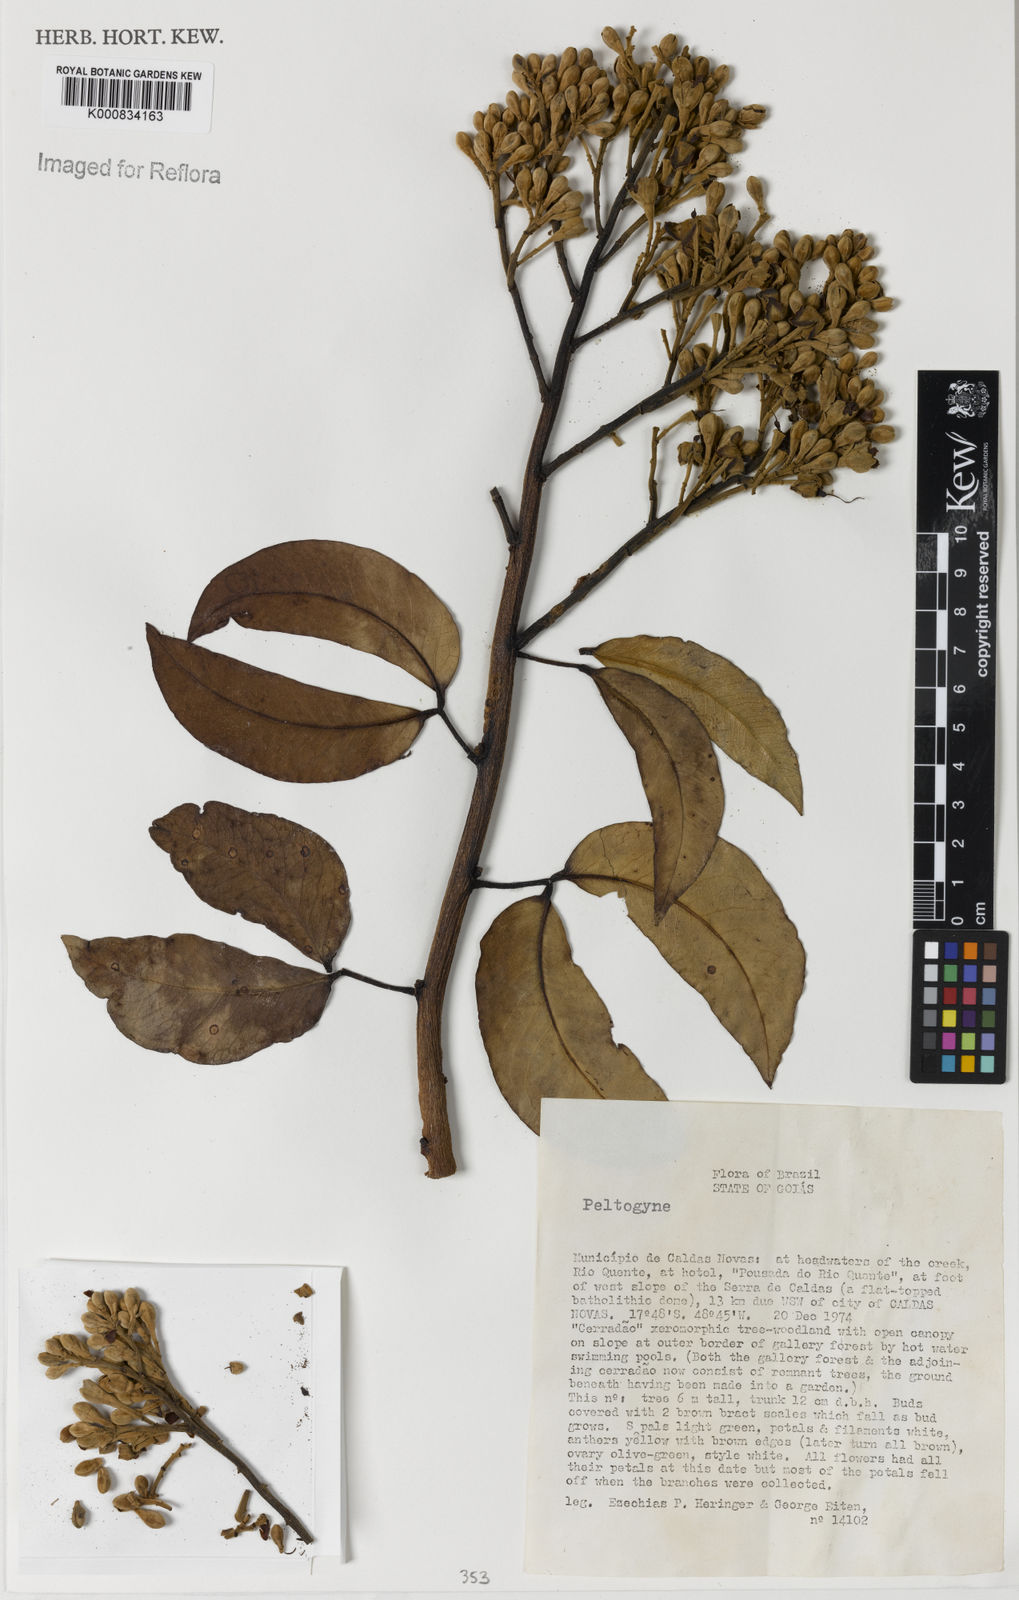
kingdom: Plantae
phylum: Tracheophyta
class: Magnoliopsida
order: Fabales
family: Fabaceae
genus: Peltogyne
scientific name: Peltogyne
